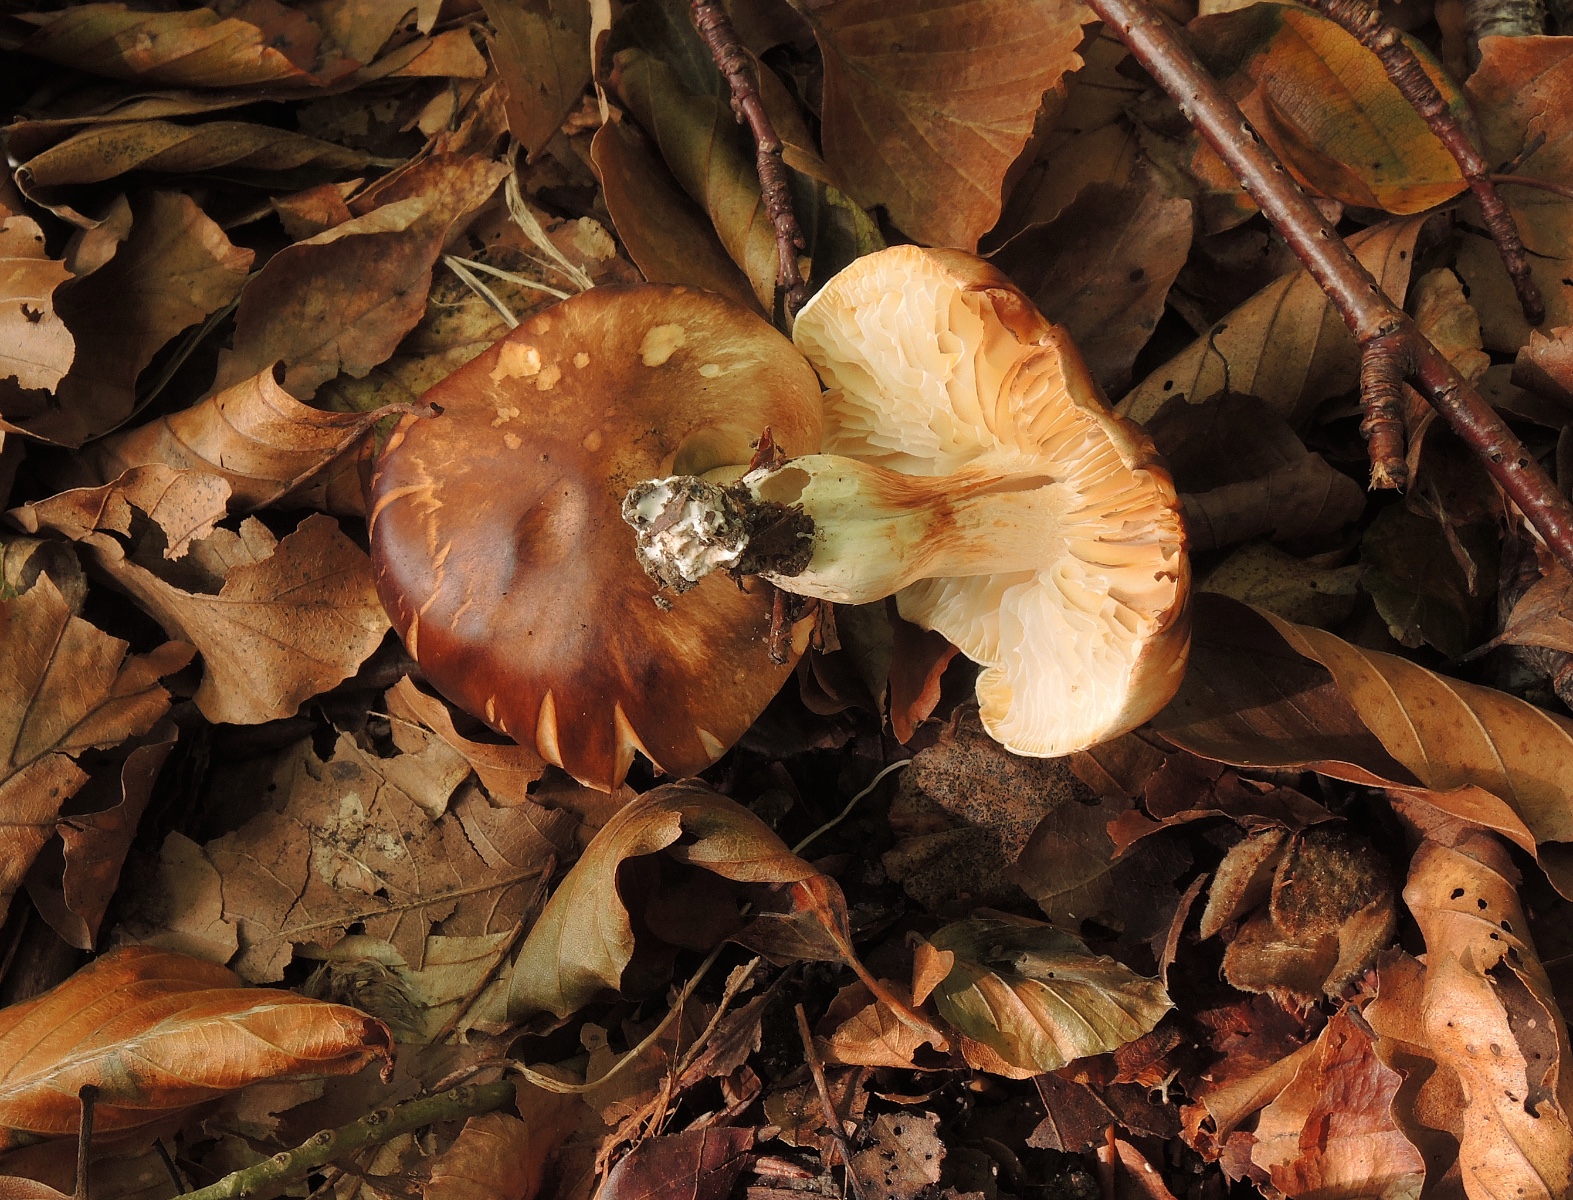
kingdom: Fungi
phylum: Basidiomycota
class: Agaricomycetes
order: Agaricales
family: Tricholomataceae
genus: Tricholoma
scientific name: Tricholoma saponaceum
